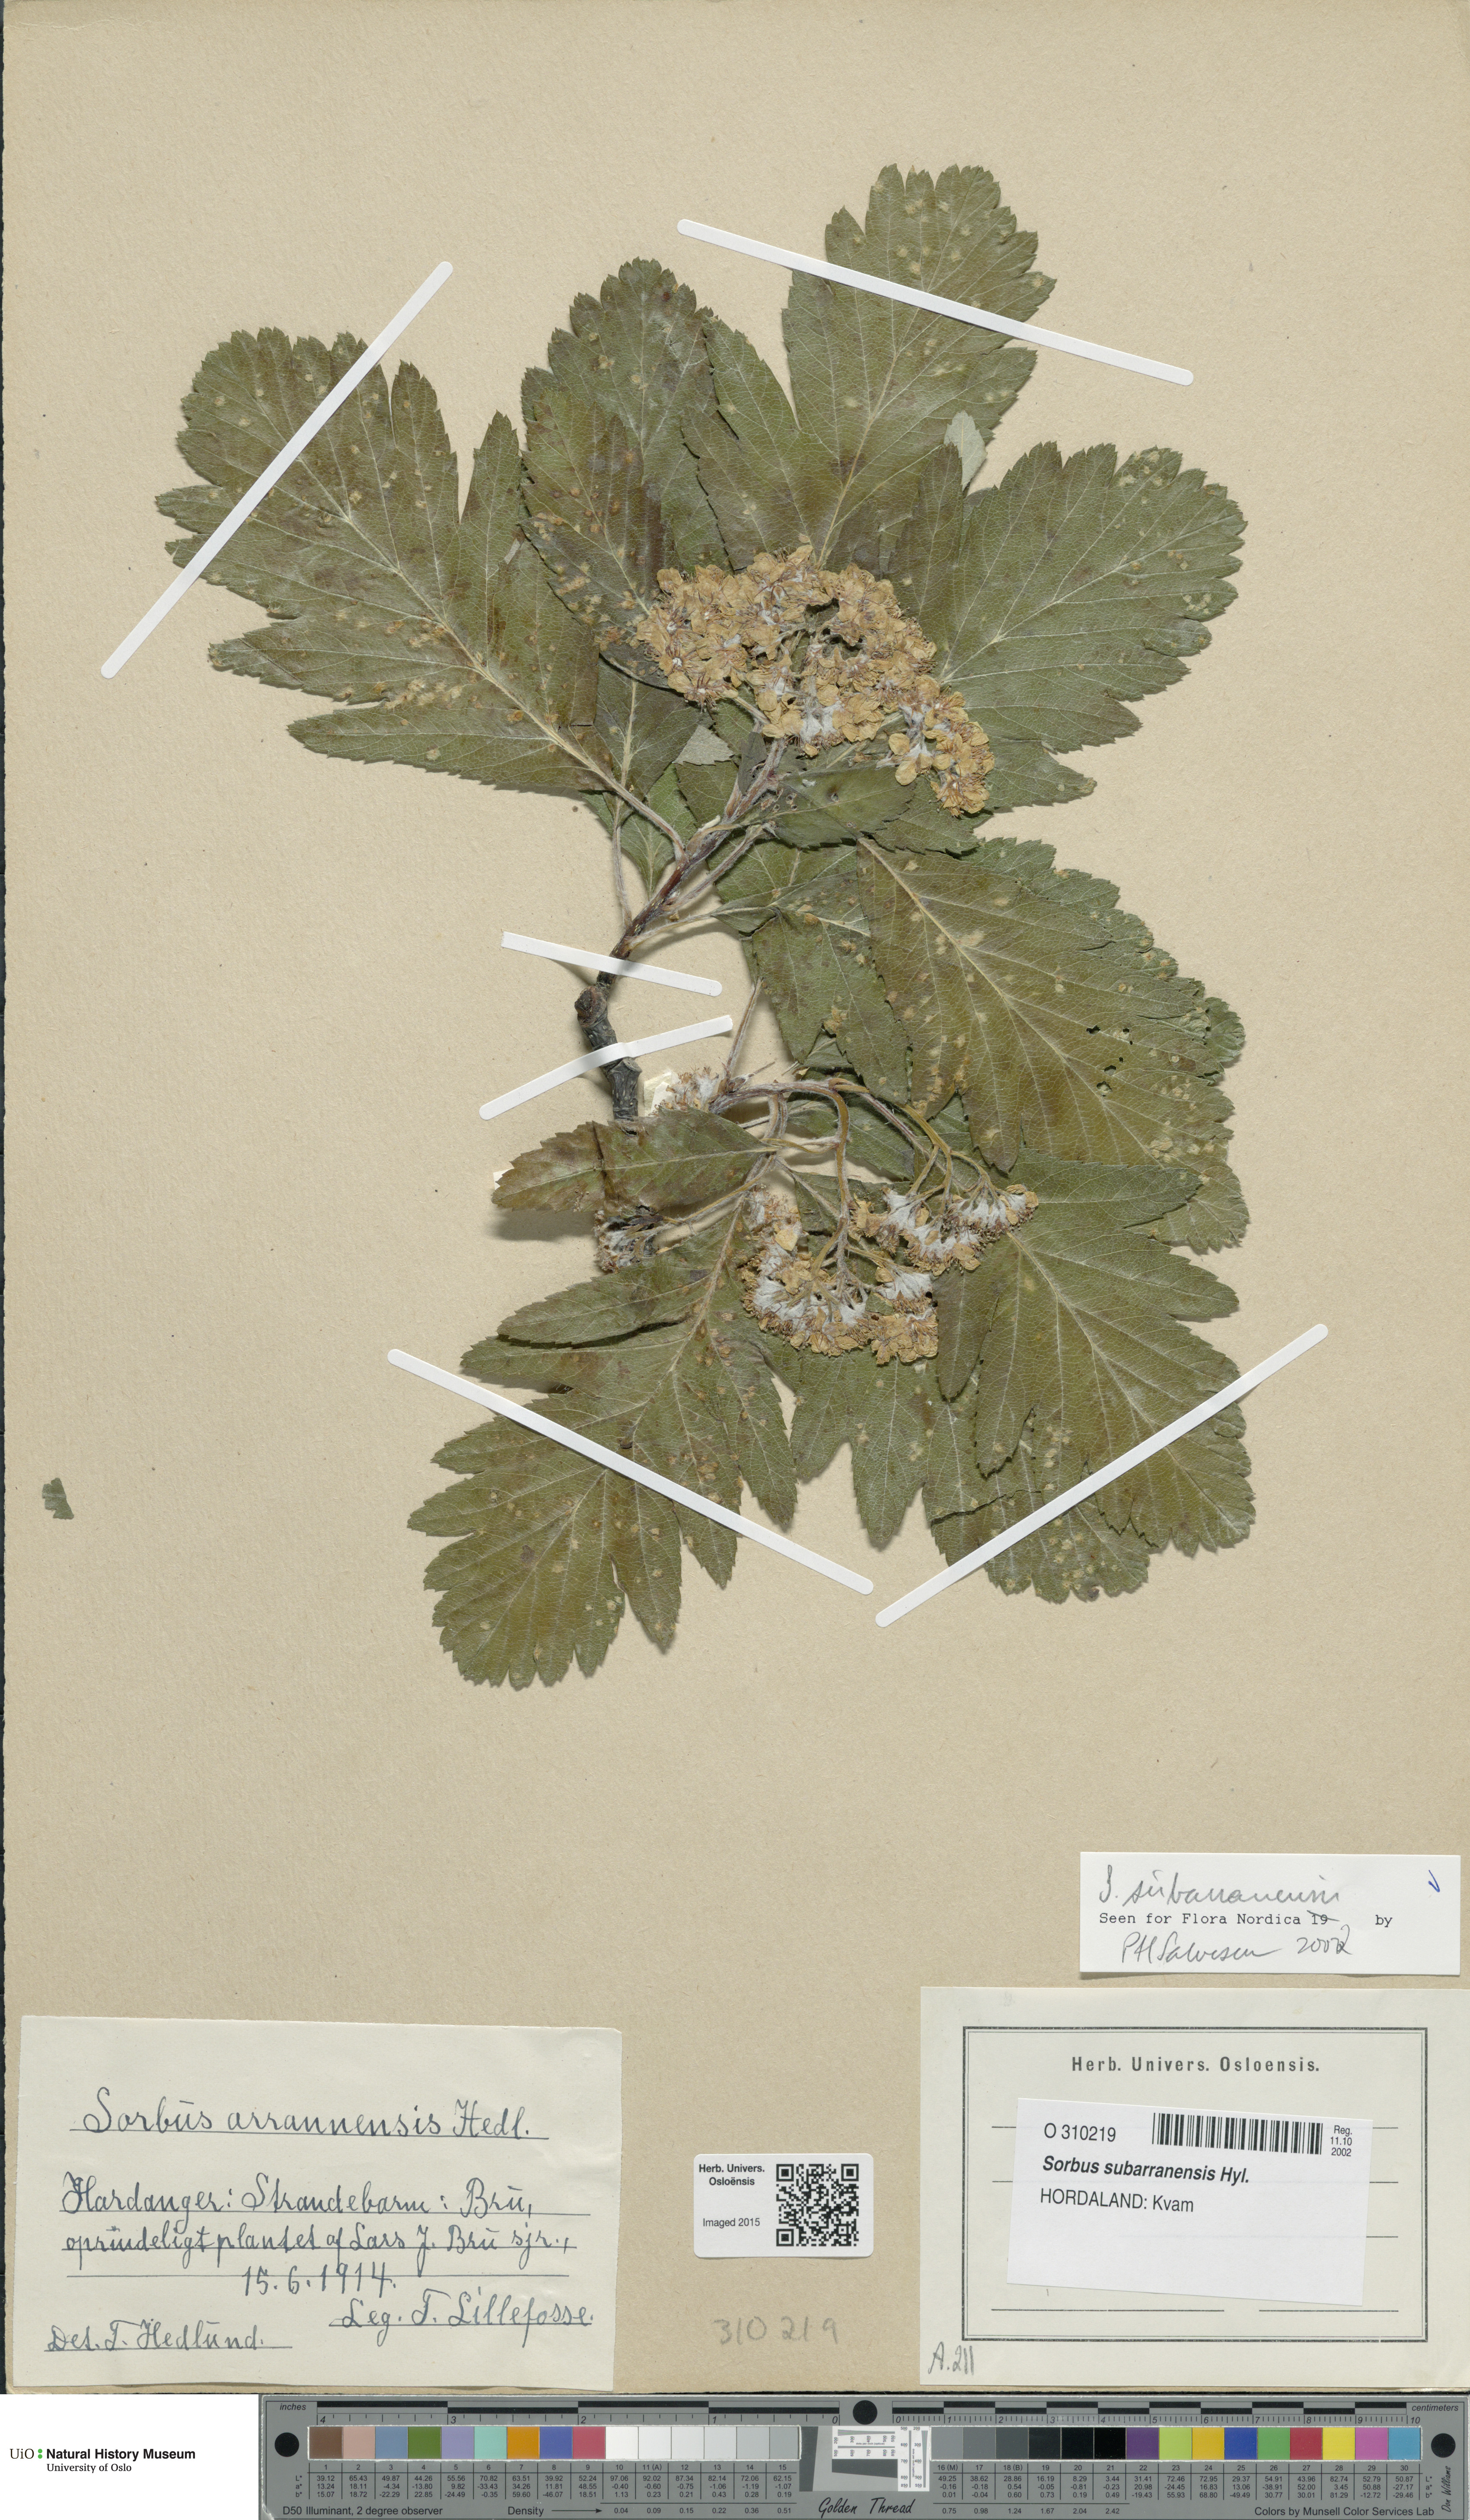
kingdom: Plantae
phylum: Tracheophyta
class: Magnoliopsida
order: Rosales
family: Rosaceae
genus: Hedlundia
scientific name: Hedlundia subarranensis
